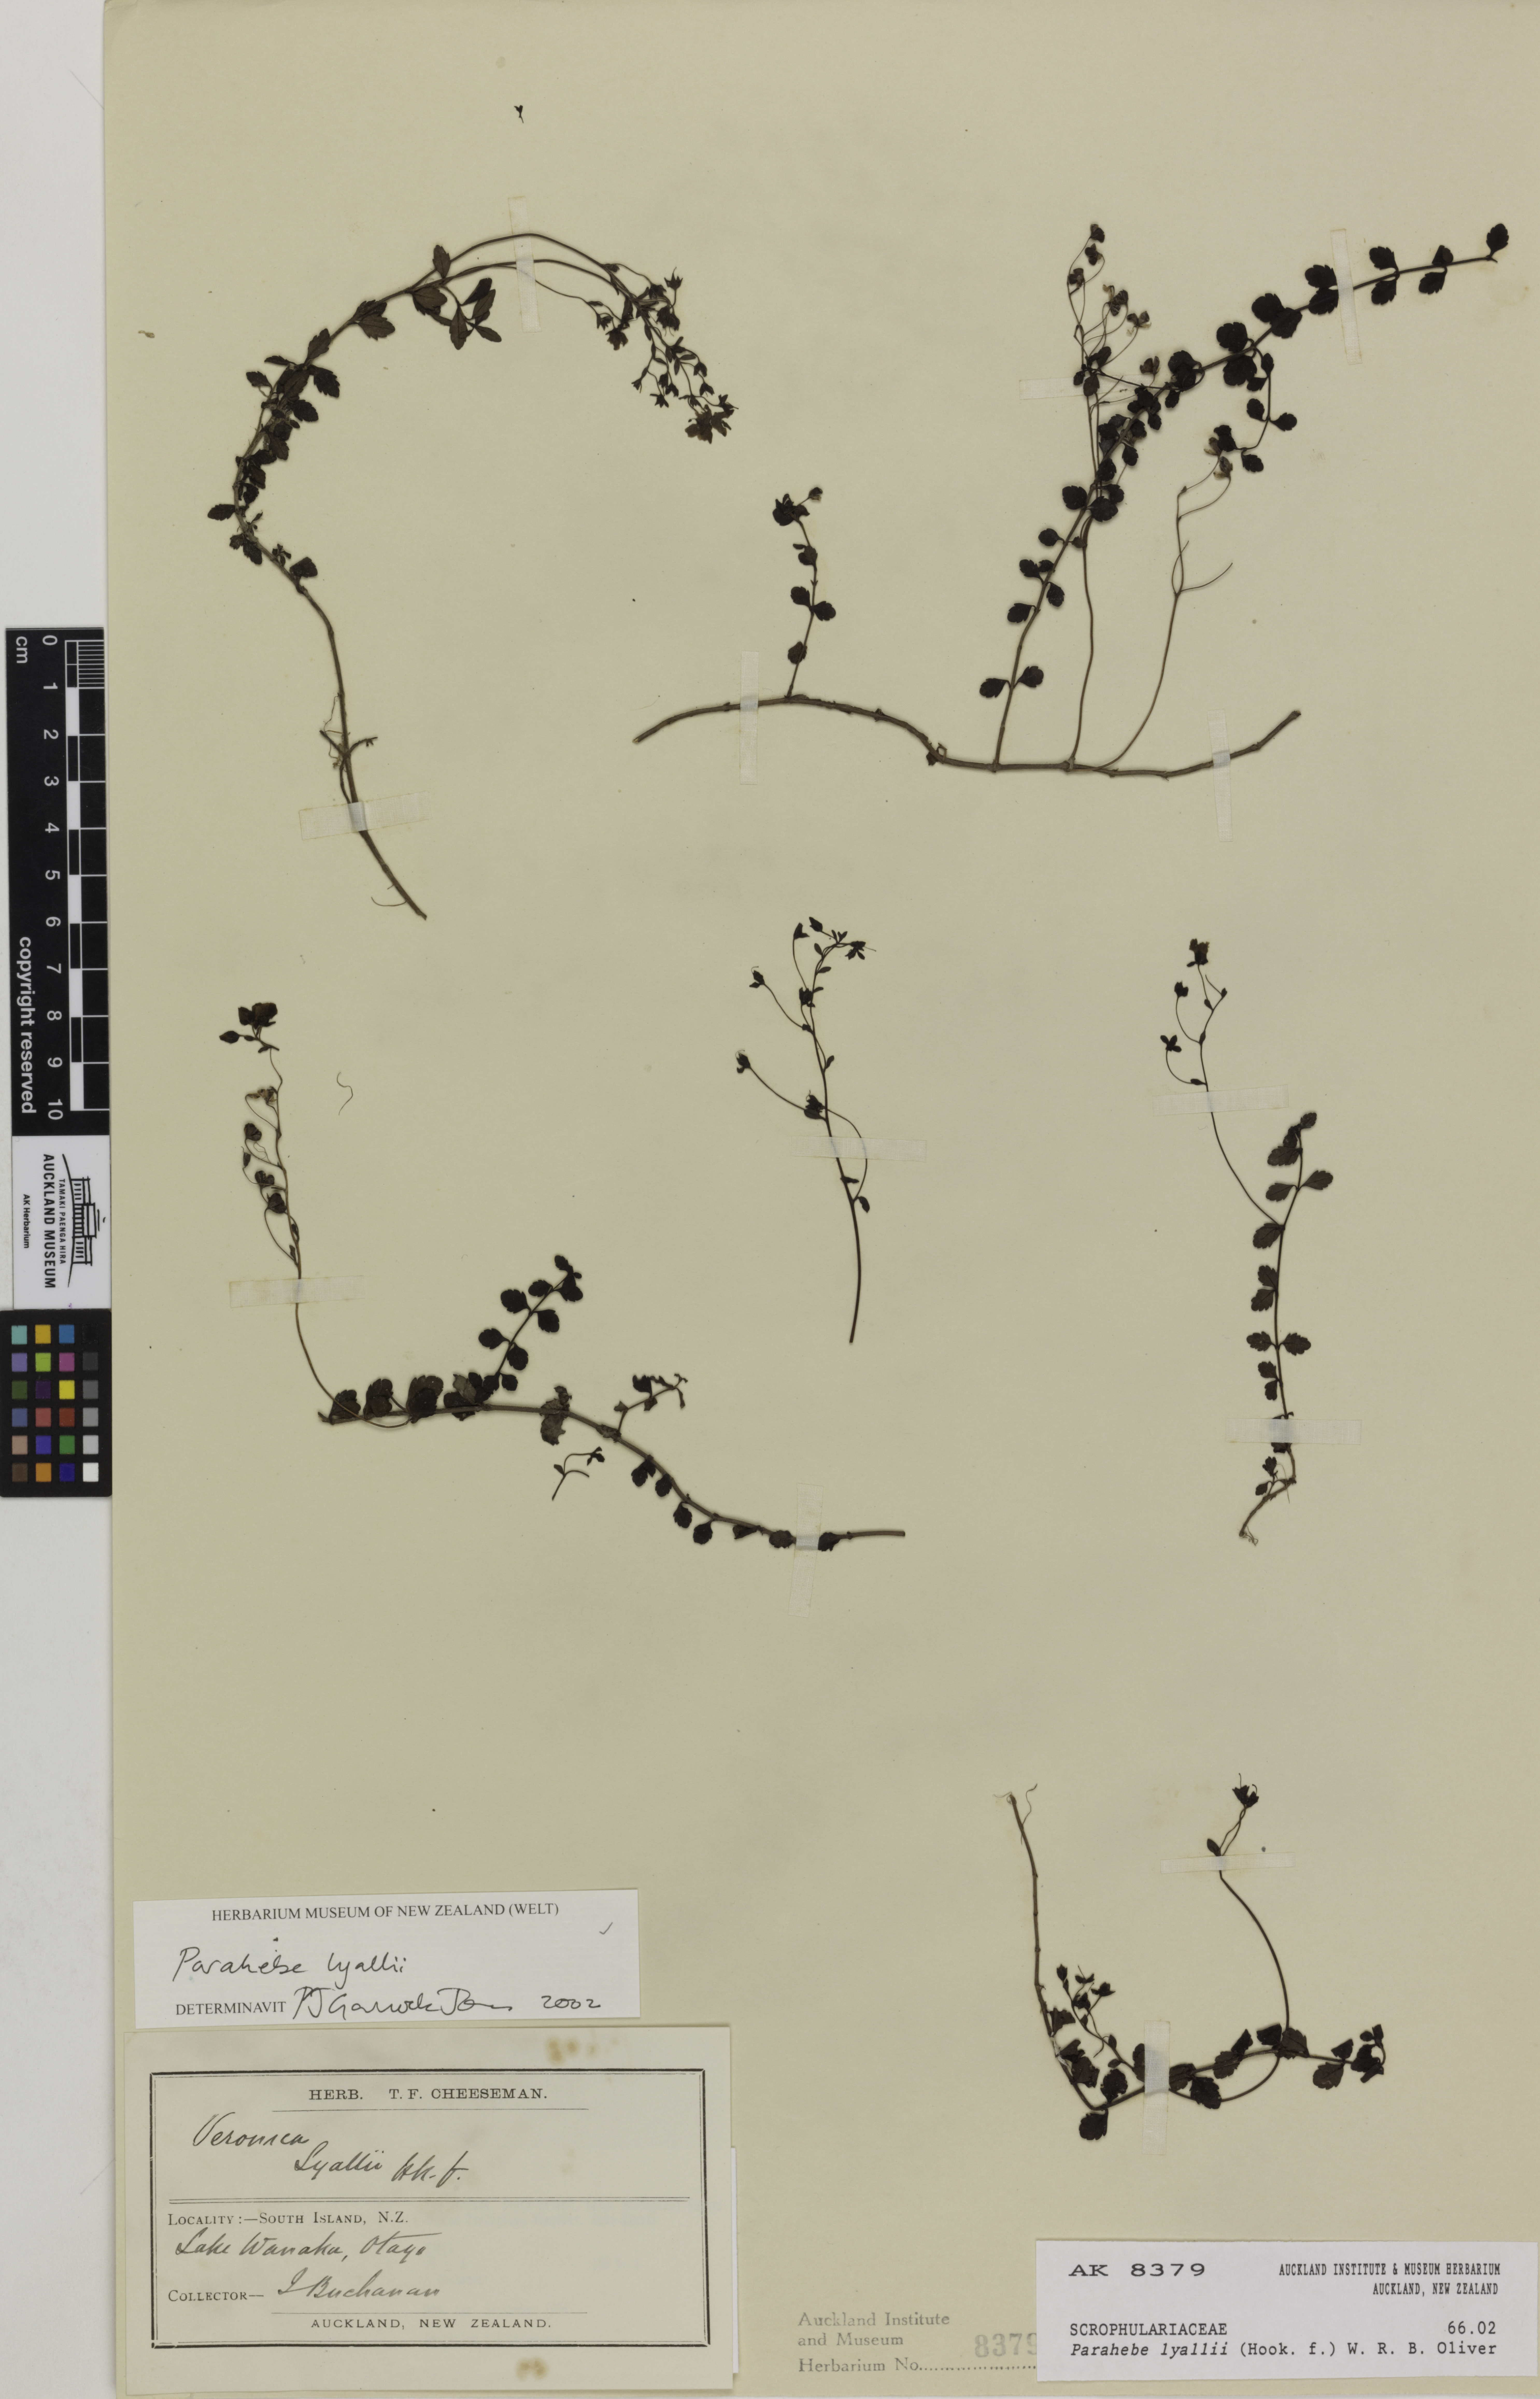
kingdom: Plantae
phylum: Tracheophyta
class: Magnoliopsida
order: Lamiales
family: Plantaginaceae
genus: Veronica
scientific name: Veronica lyallii
